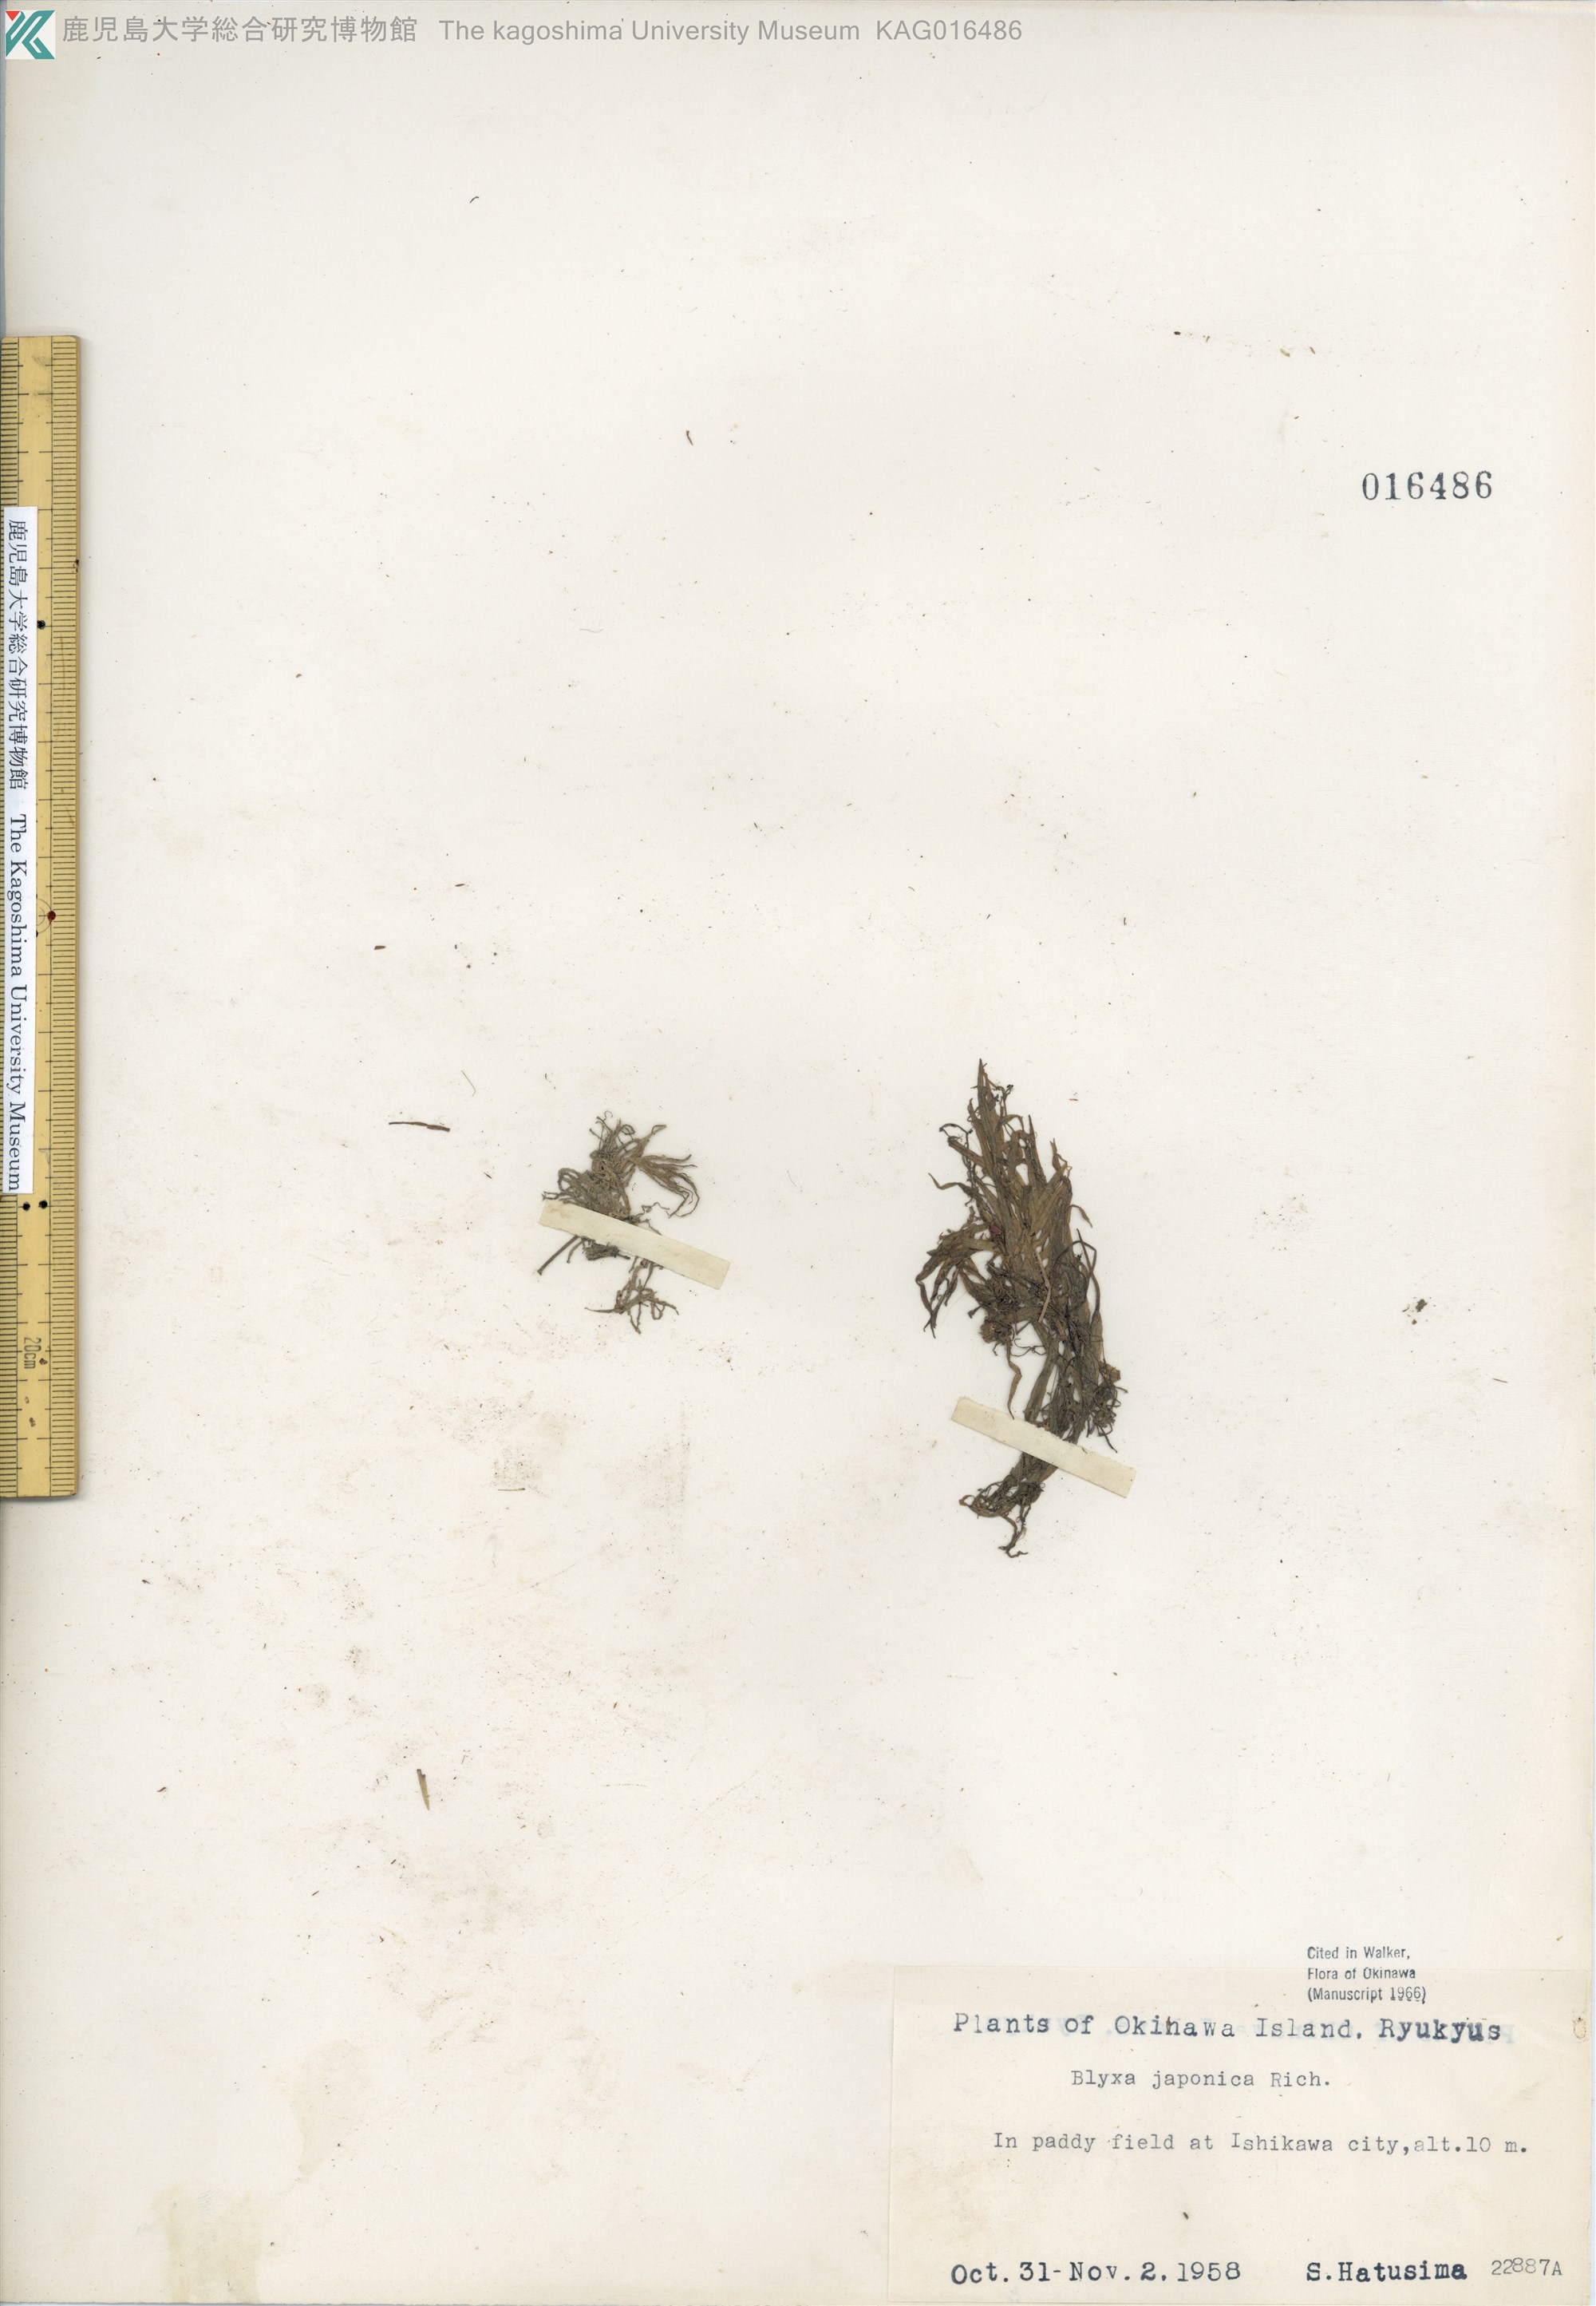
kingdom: Plantae
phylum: Tracheophyta
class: Liliopsida
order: Alismatales
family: Hydrocharitaceae
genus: Blyxa
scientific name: Blyxa japonica
